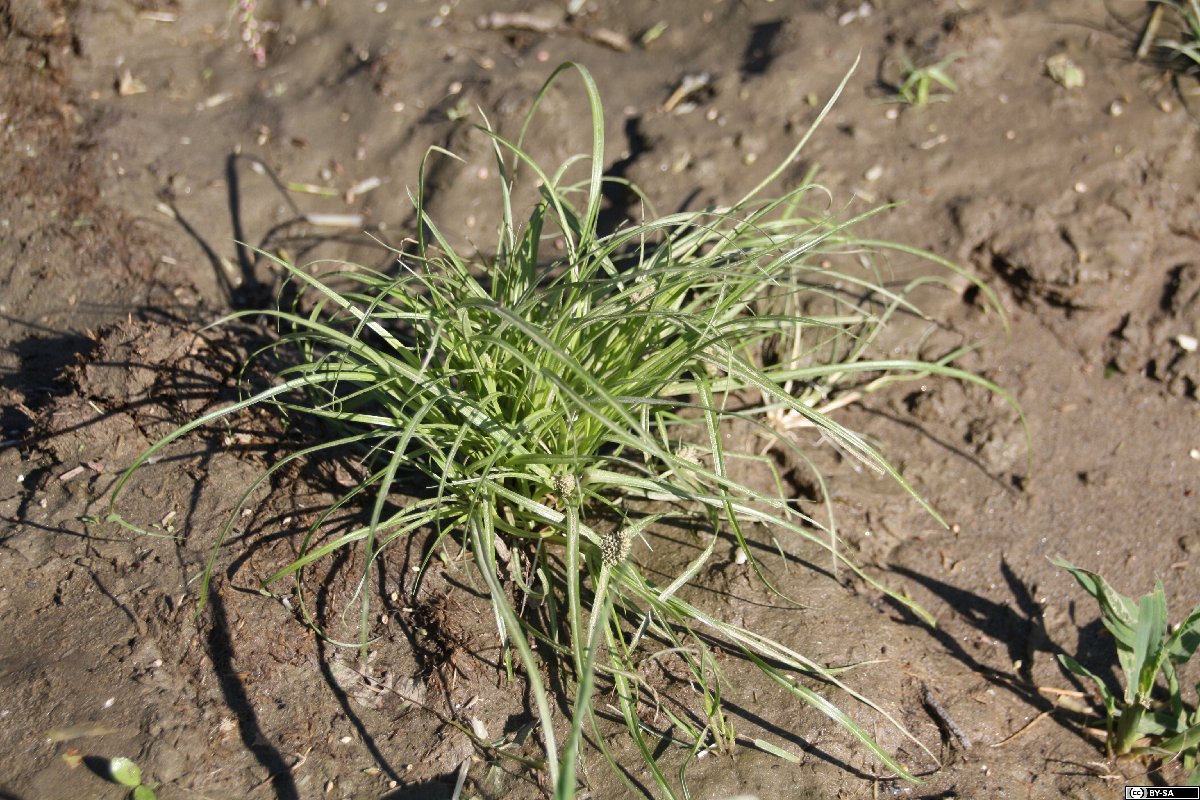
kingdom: Plantae
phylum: Tracheophyta
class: Liliopsida
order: Poales
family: Cyperaceae
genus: Cyperus
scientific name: Cyperus michelianus
